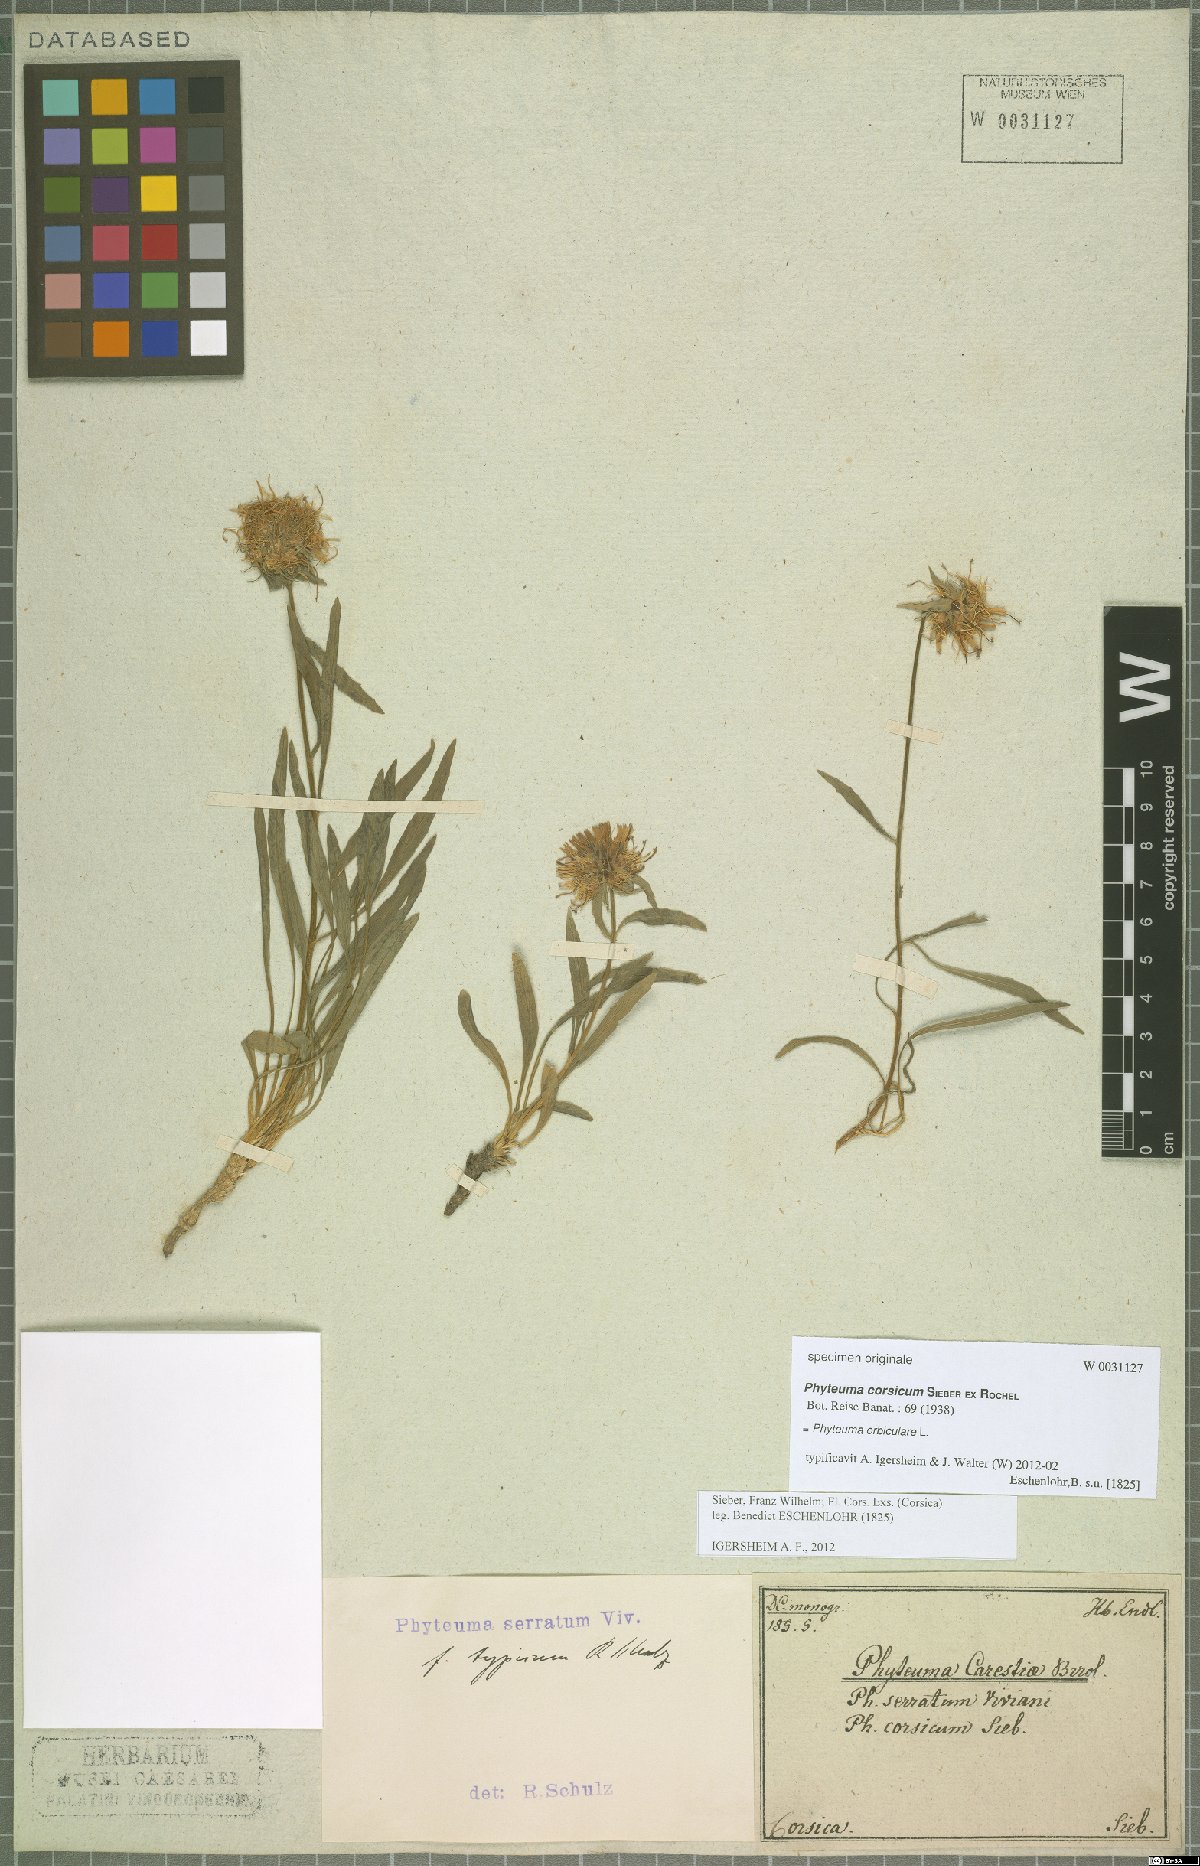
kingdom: Plantae
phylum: Tracheophyta
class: Magnoliopsida
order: Asterales
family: Campanulaceae
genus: Phyteuma
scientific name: Phyteuma orbiculare
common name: Round-headed rampion
